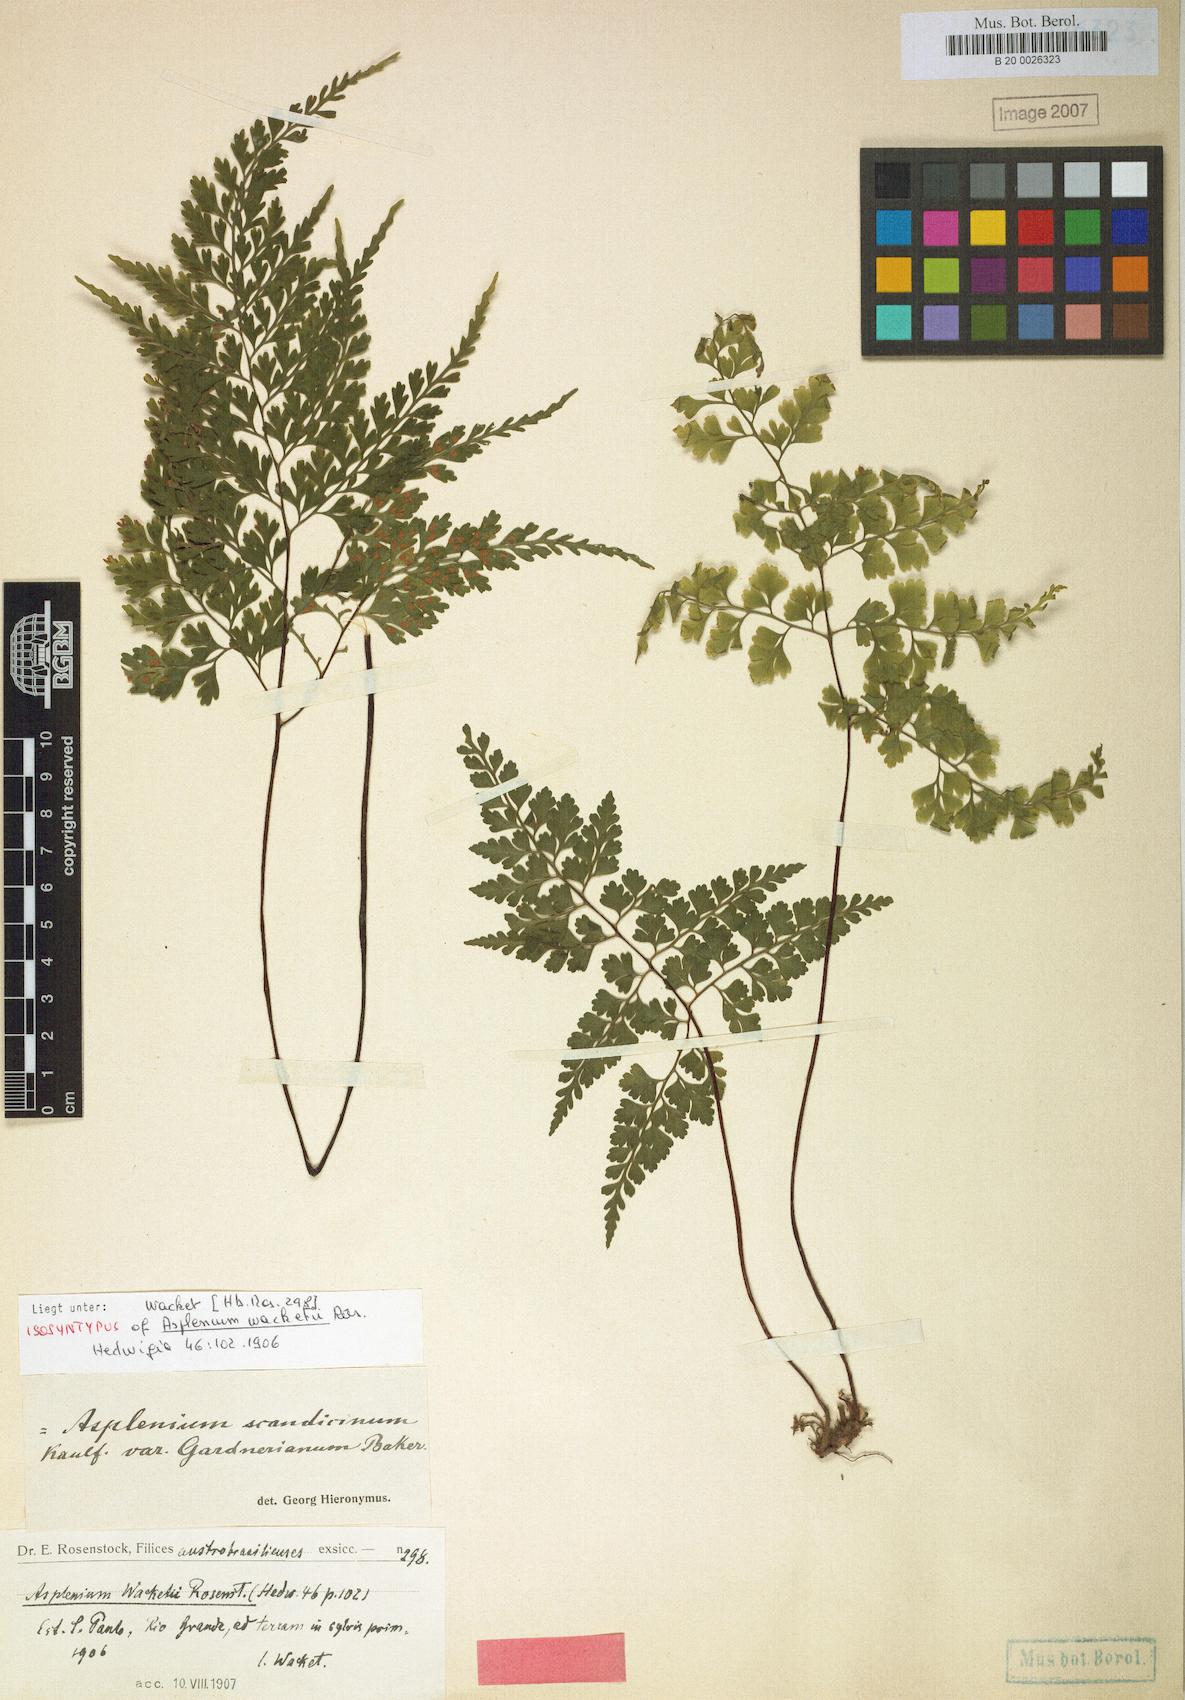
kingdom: Plantae
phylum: Tracheophyta
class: Polypodiopsida
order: Polypodiales
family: Aspleniaceae
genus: Asplenium
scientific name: Asplenium wacketii
